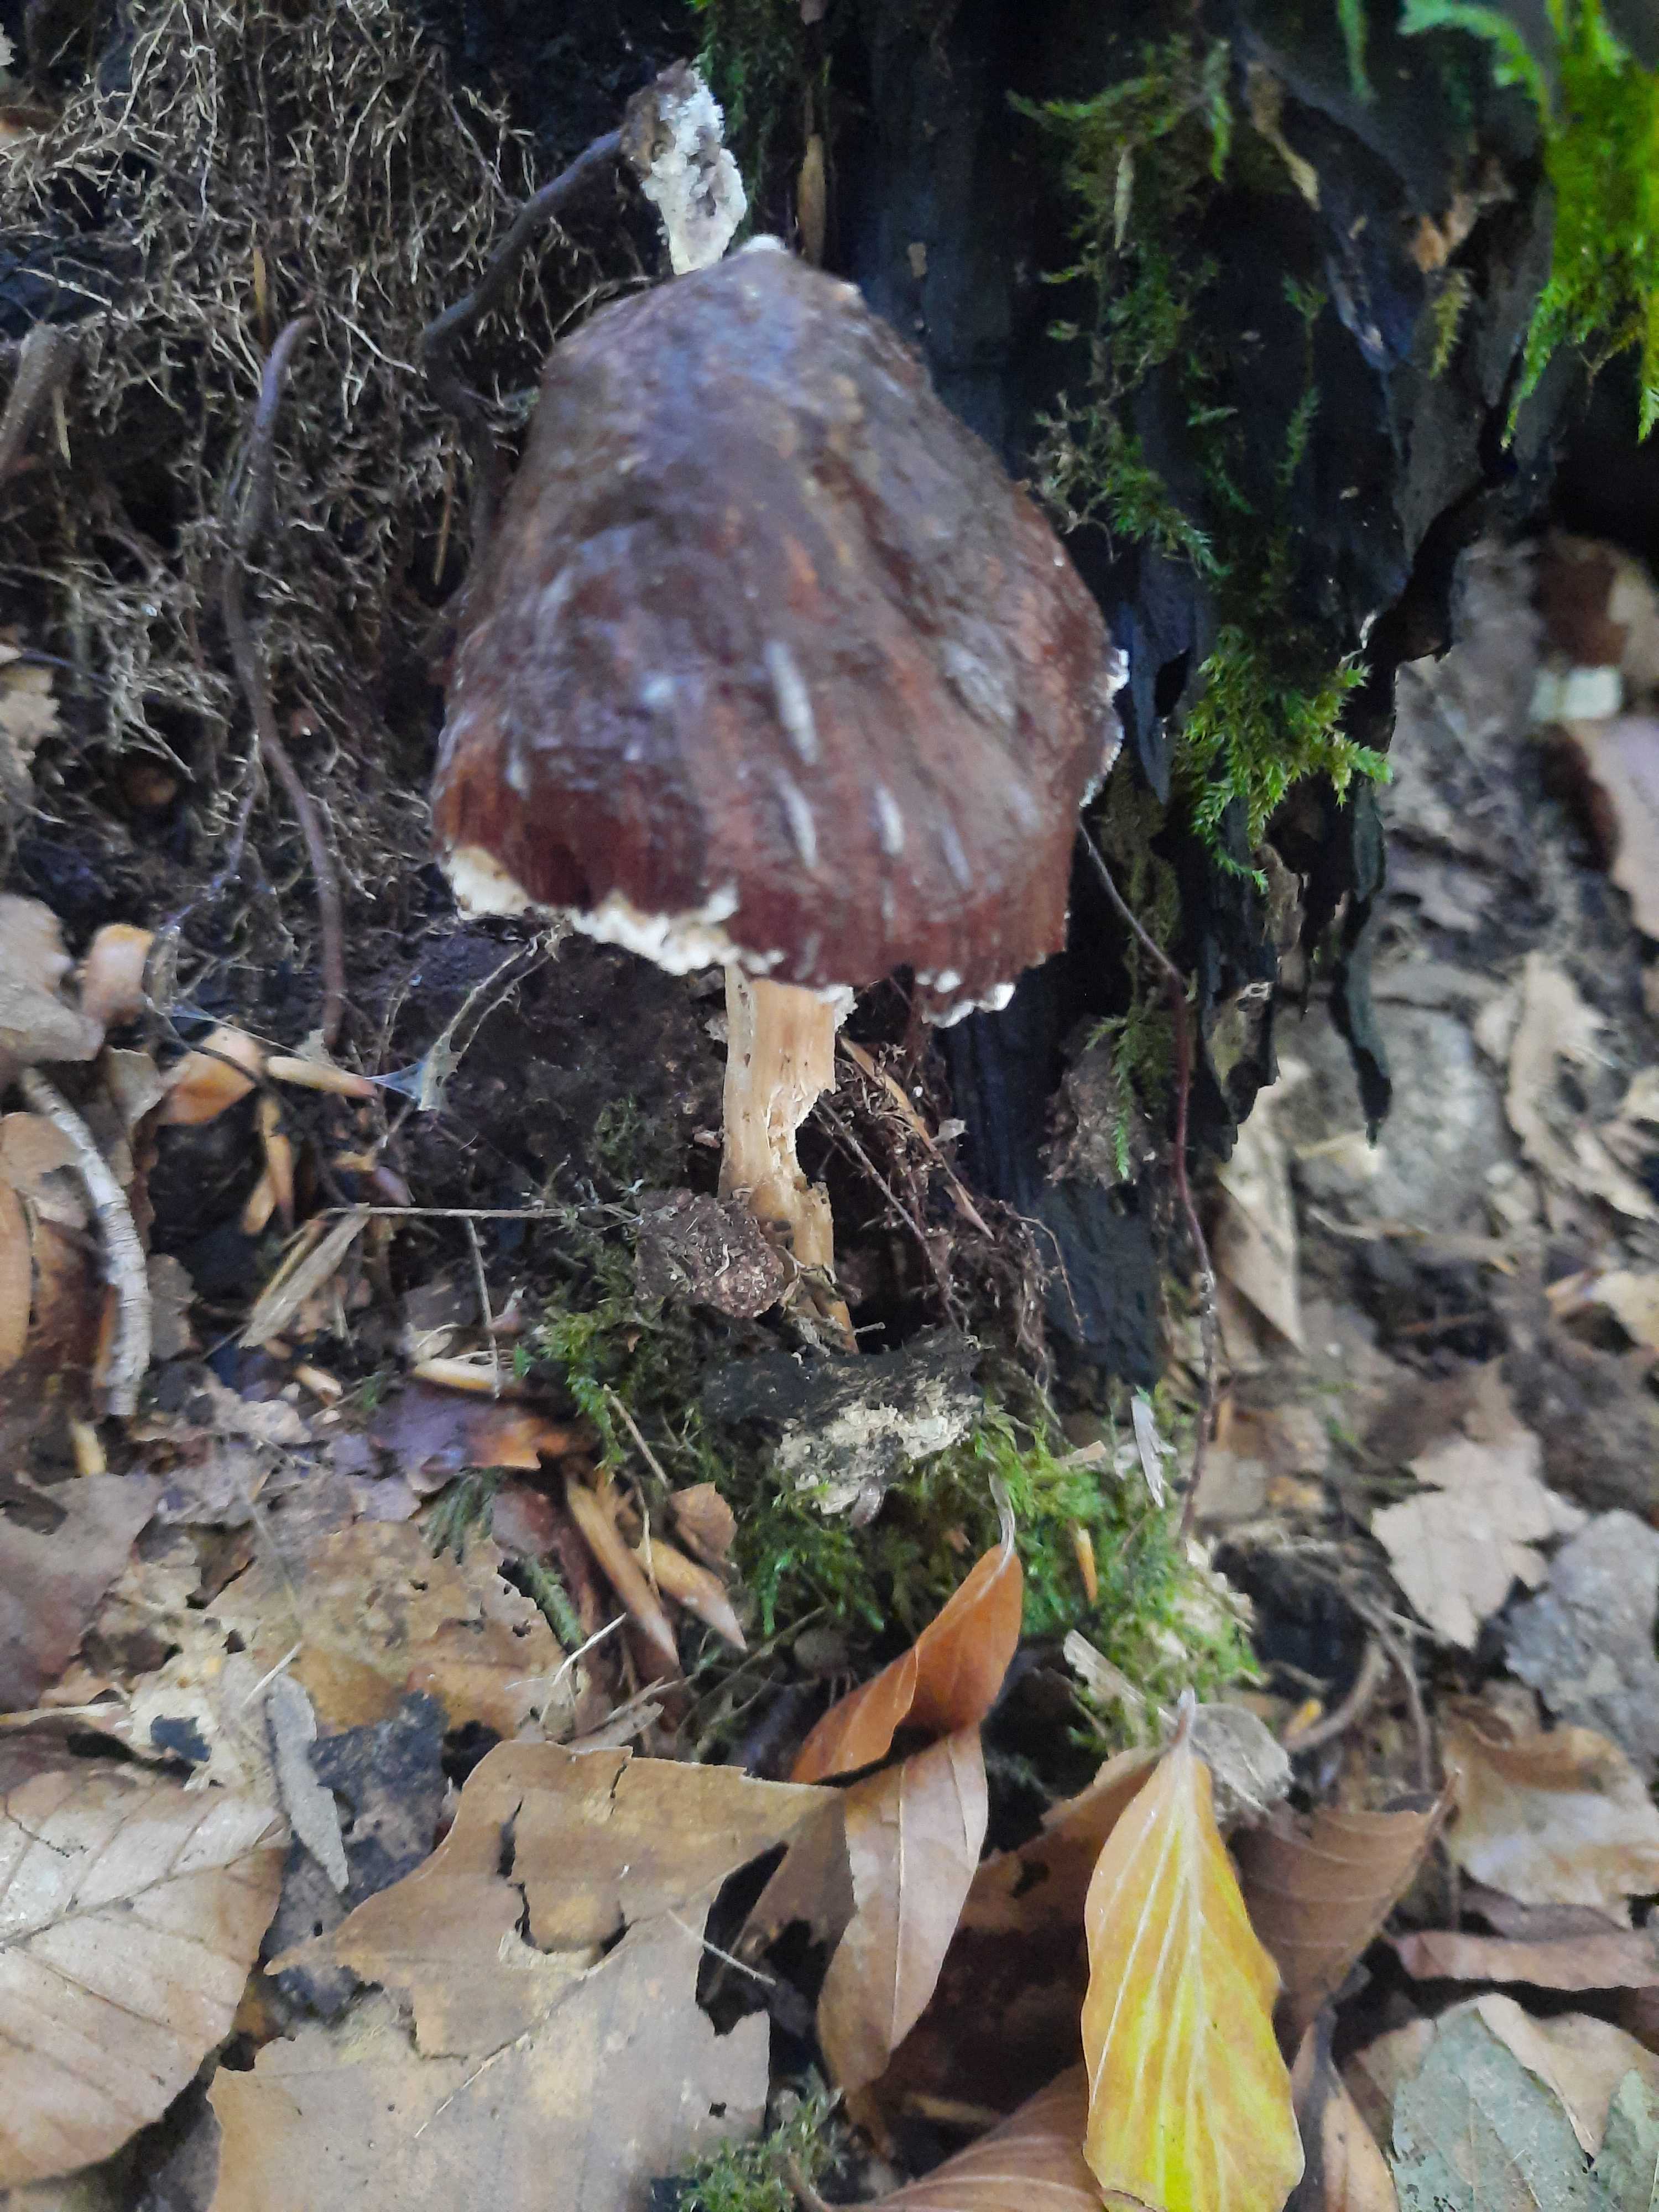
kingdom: Fungi
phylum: Basidiomycota
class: Agaricomycetes
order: Agaricales
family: Pluteaceae
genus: Pluteus
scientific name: Pluteus cervinus
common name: sodfarvet skærmhat
